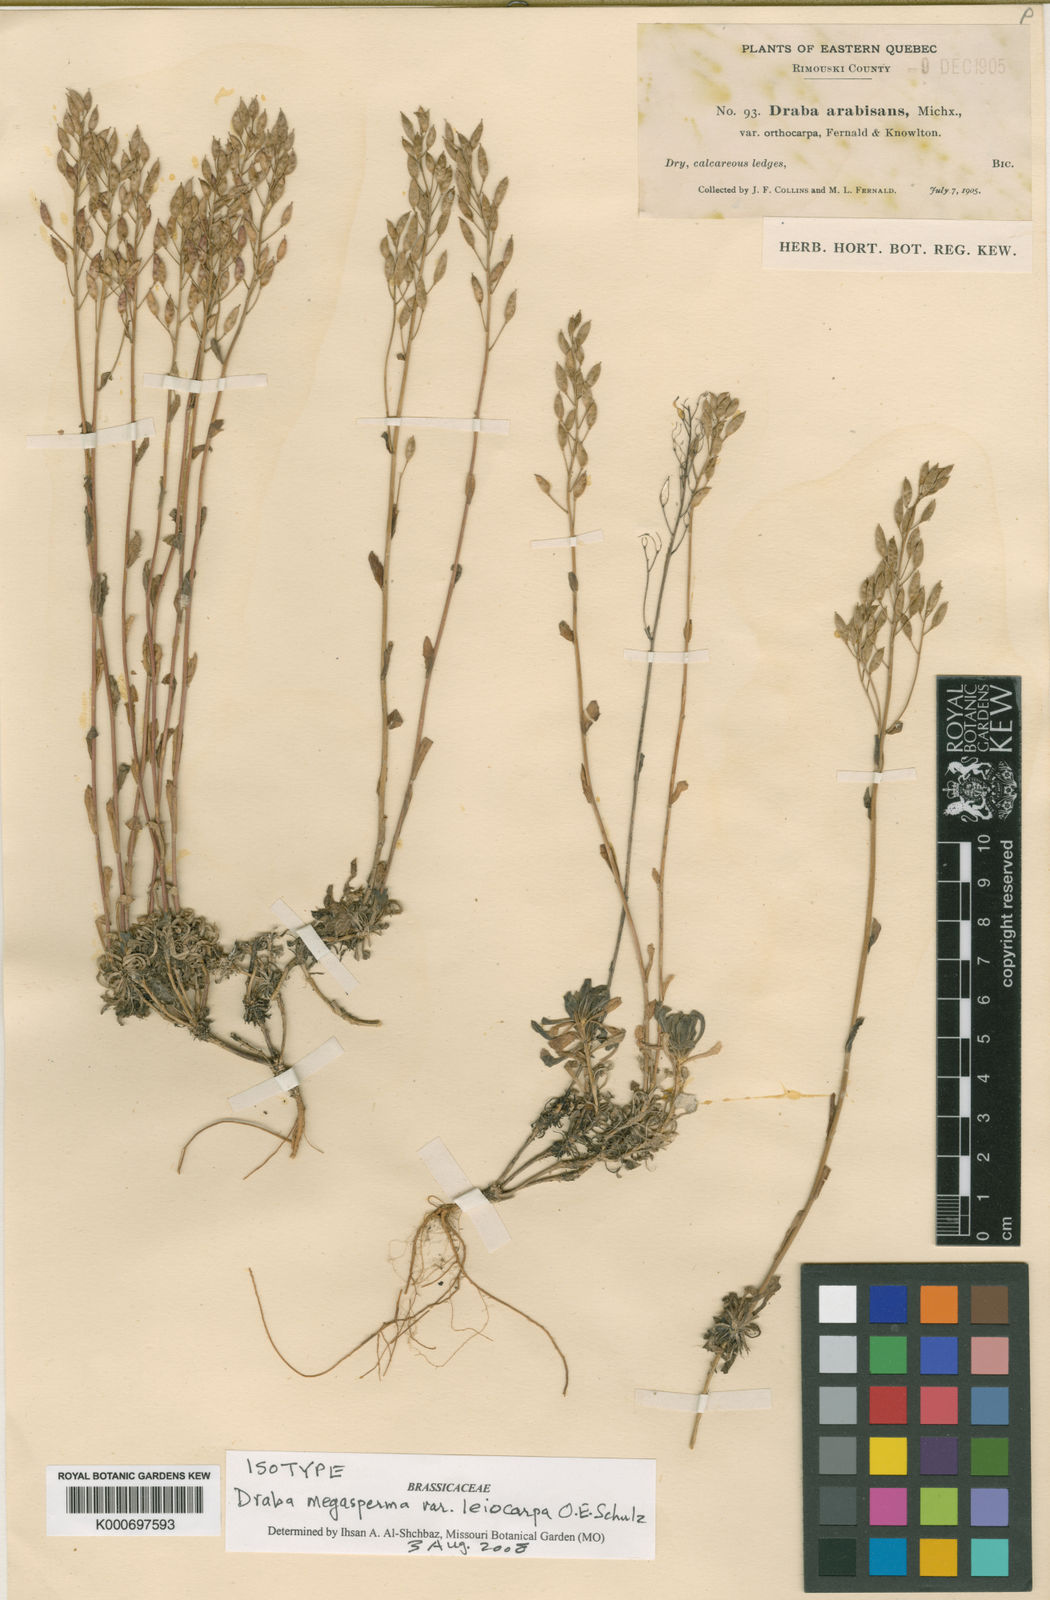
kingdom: Plantae
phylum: Tracheophyta
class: Magnoliopsida
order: Brassicales
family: Brassicaceae
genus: Draba
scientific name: Draba glabella
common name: Glaucous draba
